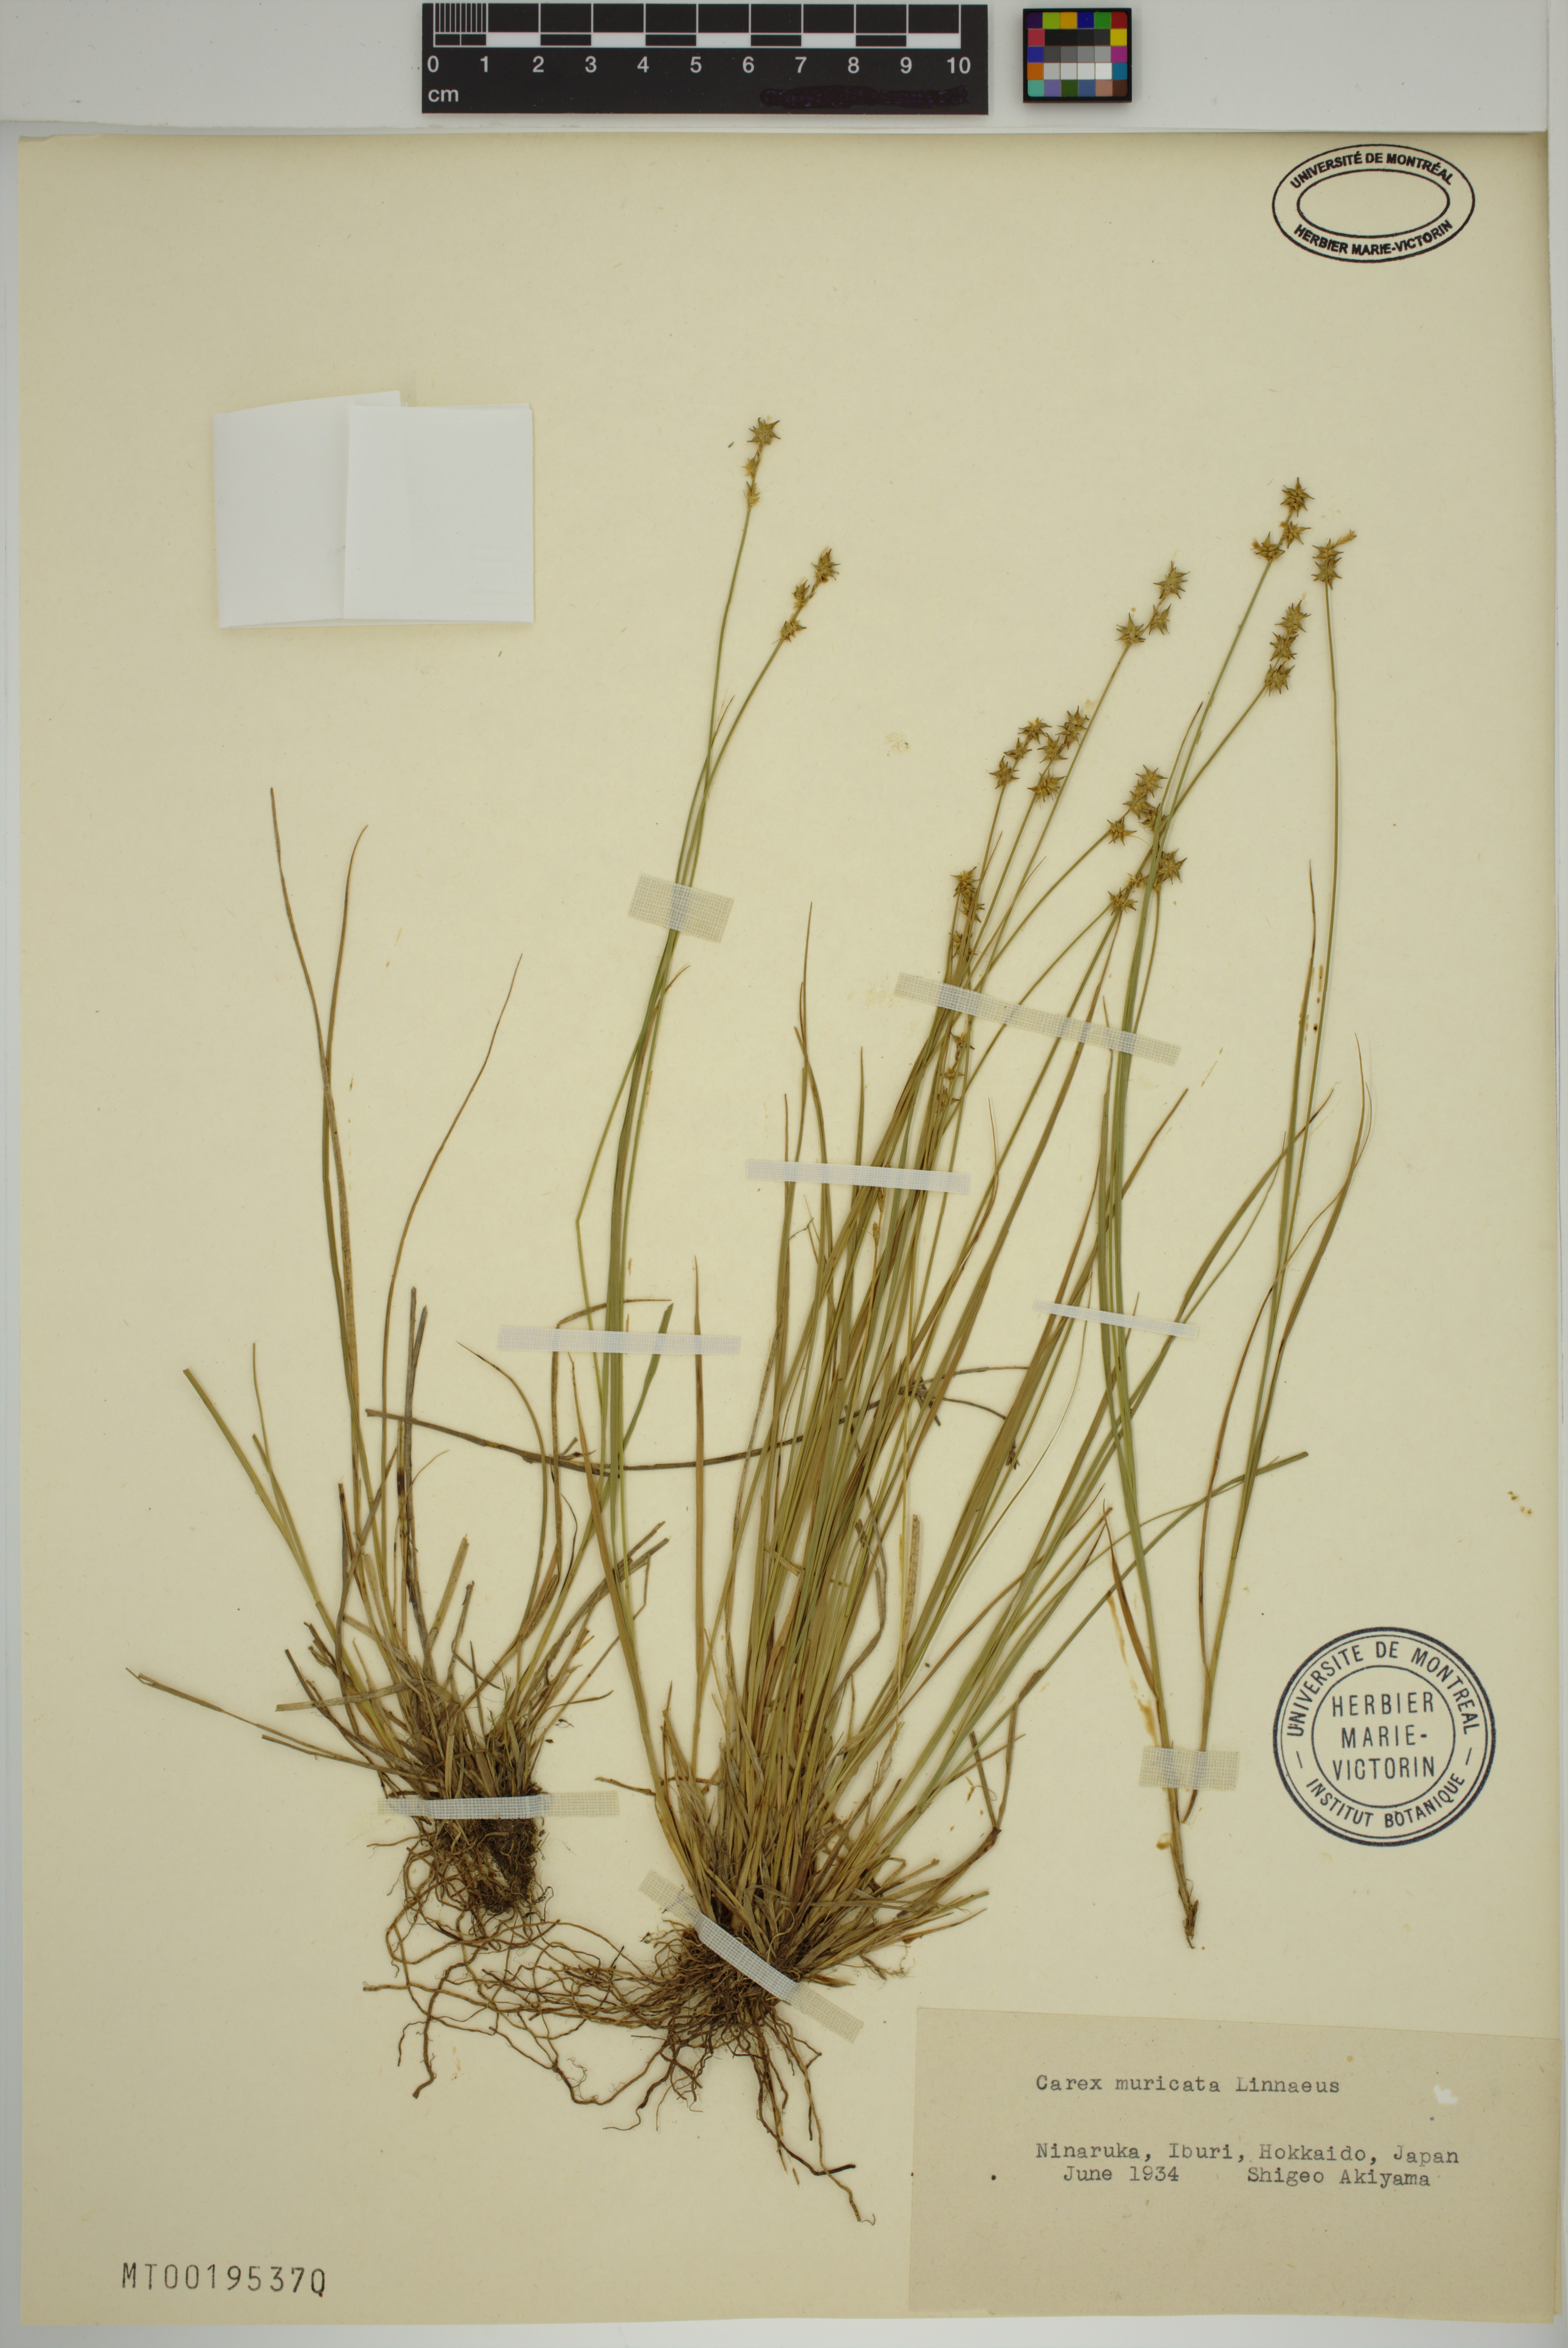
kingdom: Plantae
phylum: Tracheophyta
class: Liliopsida
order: Poales
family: Cyperaceae
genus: Carex
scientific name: Carex muricata
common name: Rough sedge
